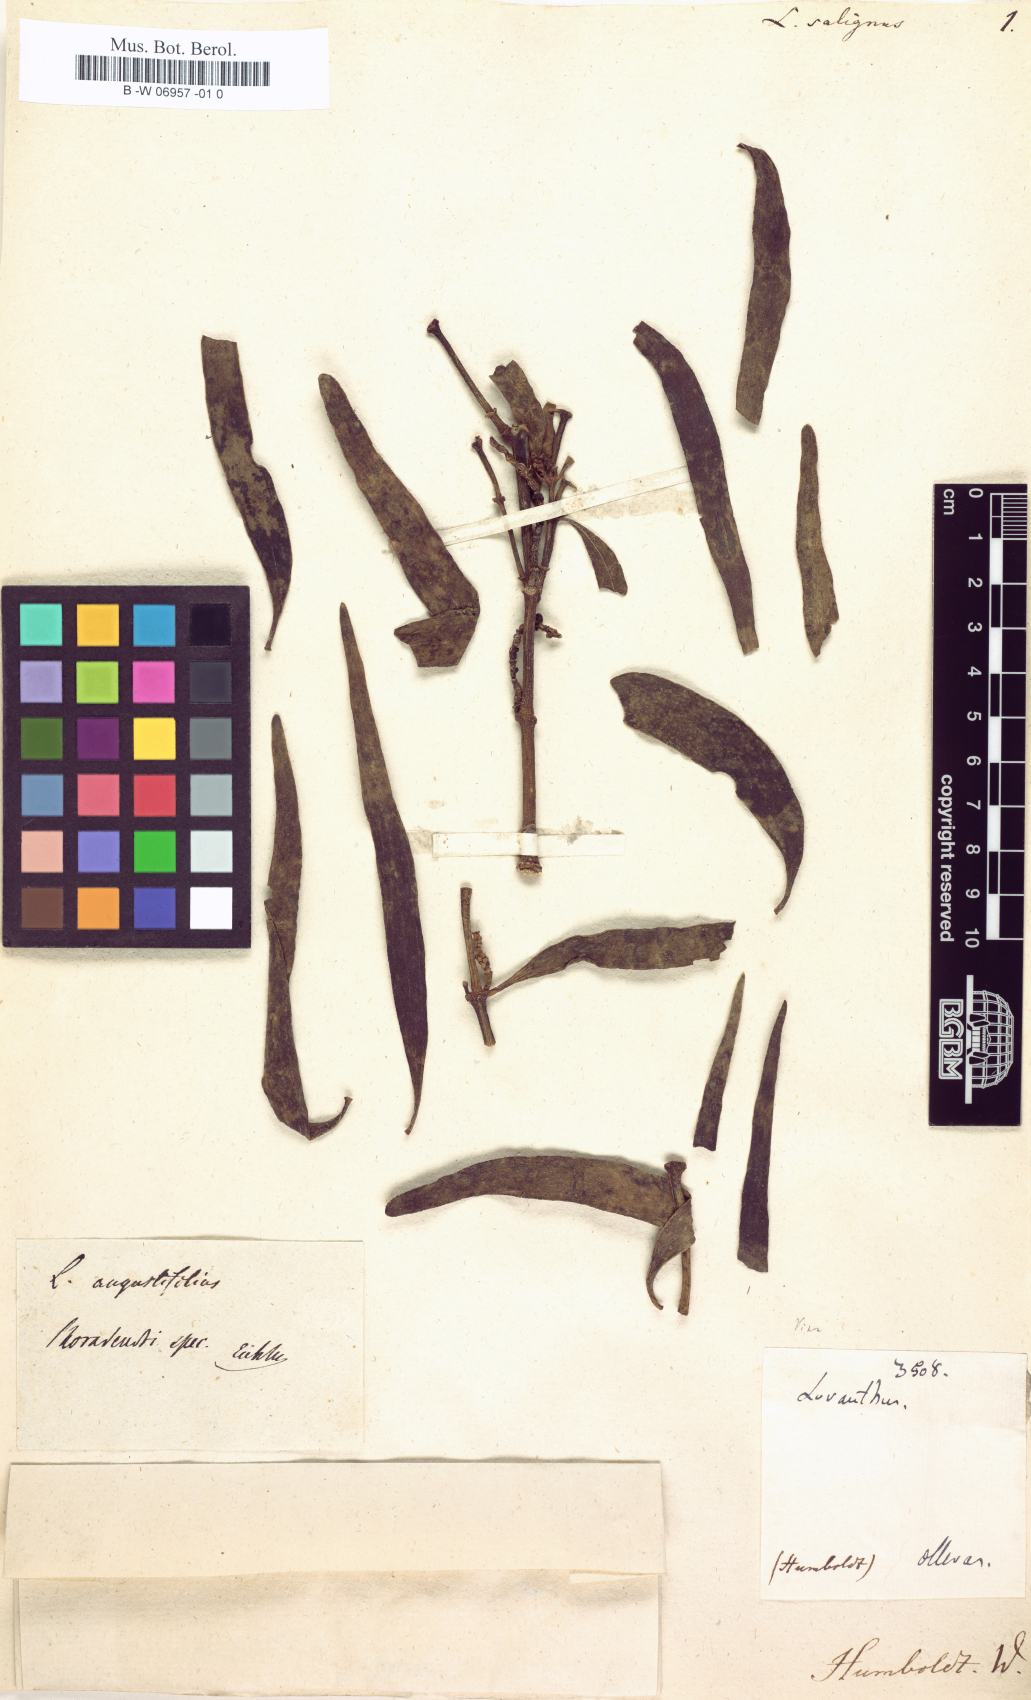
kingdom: Plantae
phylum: Tracheophyta
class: Magnoliopsida
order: Santalales
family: Viscaceae
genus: Phoradendron
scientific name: Phoradendron angustifolium
